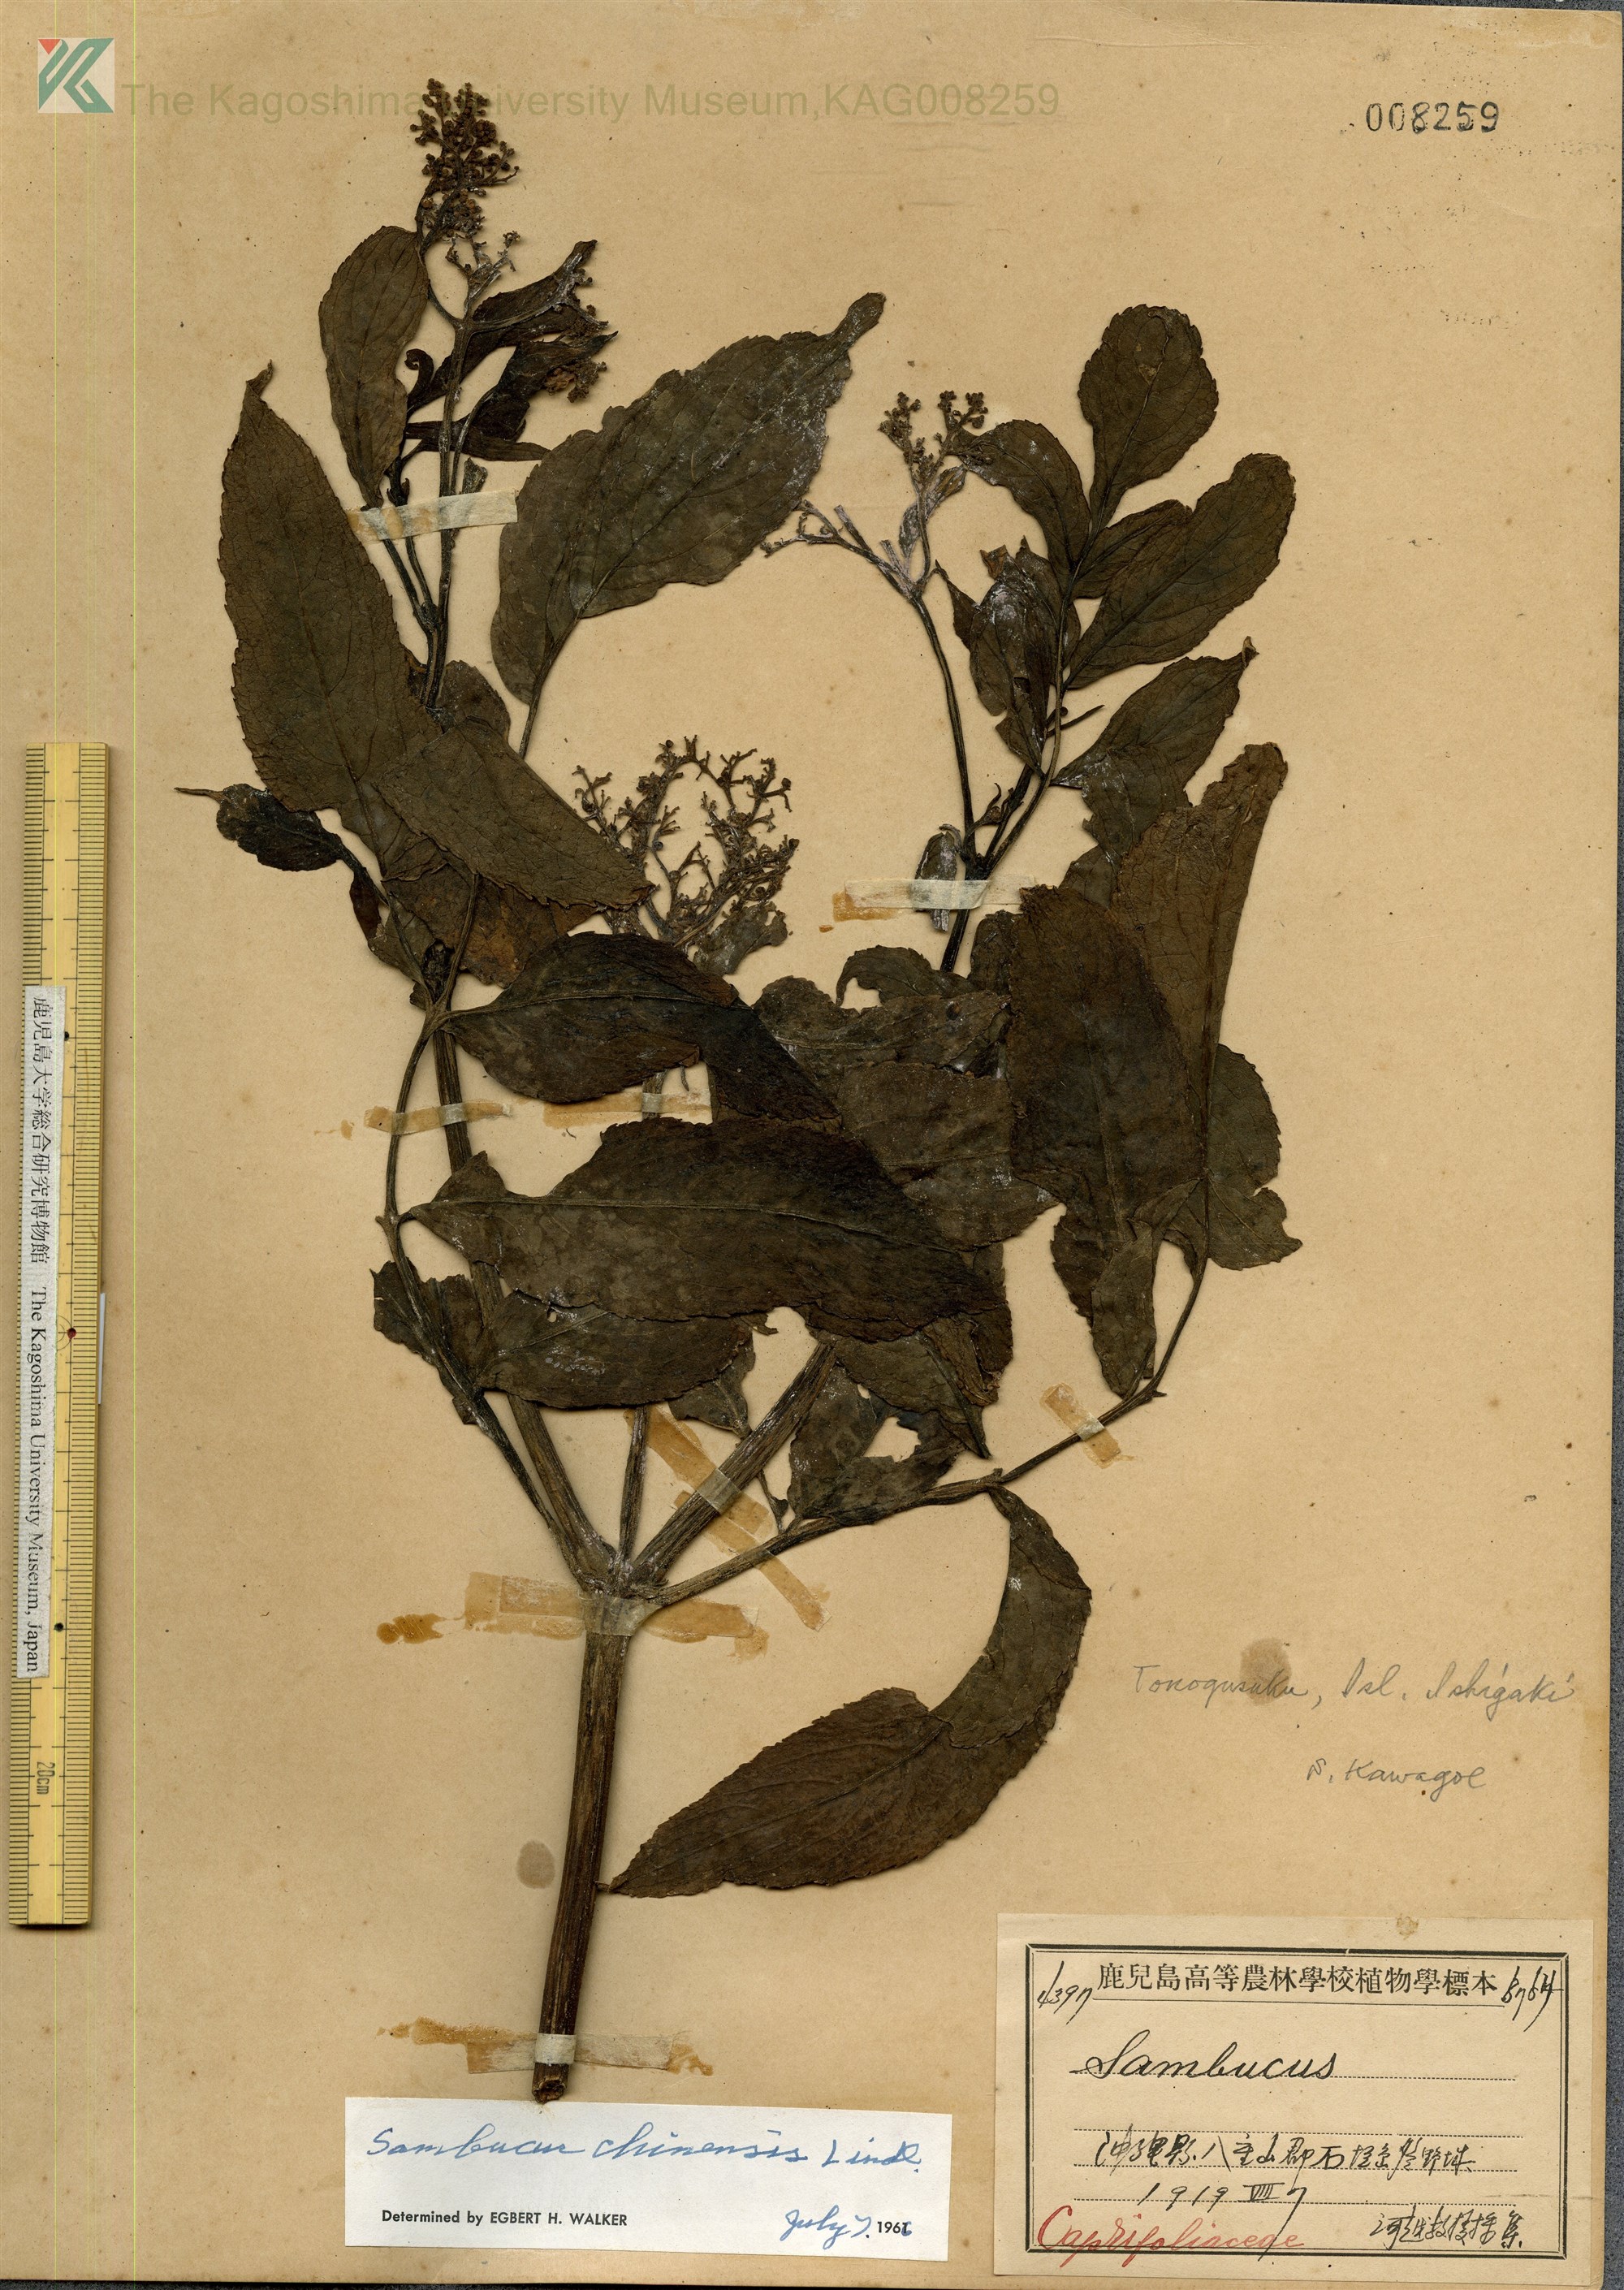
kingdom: Plantae
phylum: Tracheophyta
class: Magnoliopsida
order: Dipsacales
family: Viburnaceae
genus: Sambucus
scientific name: Sambucus javanica
